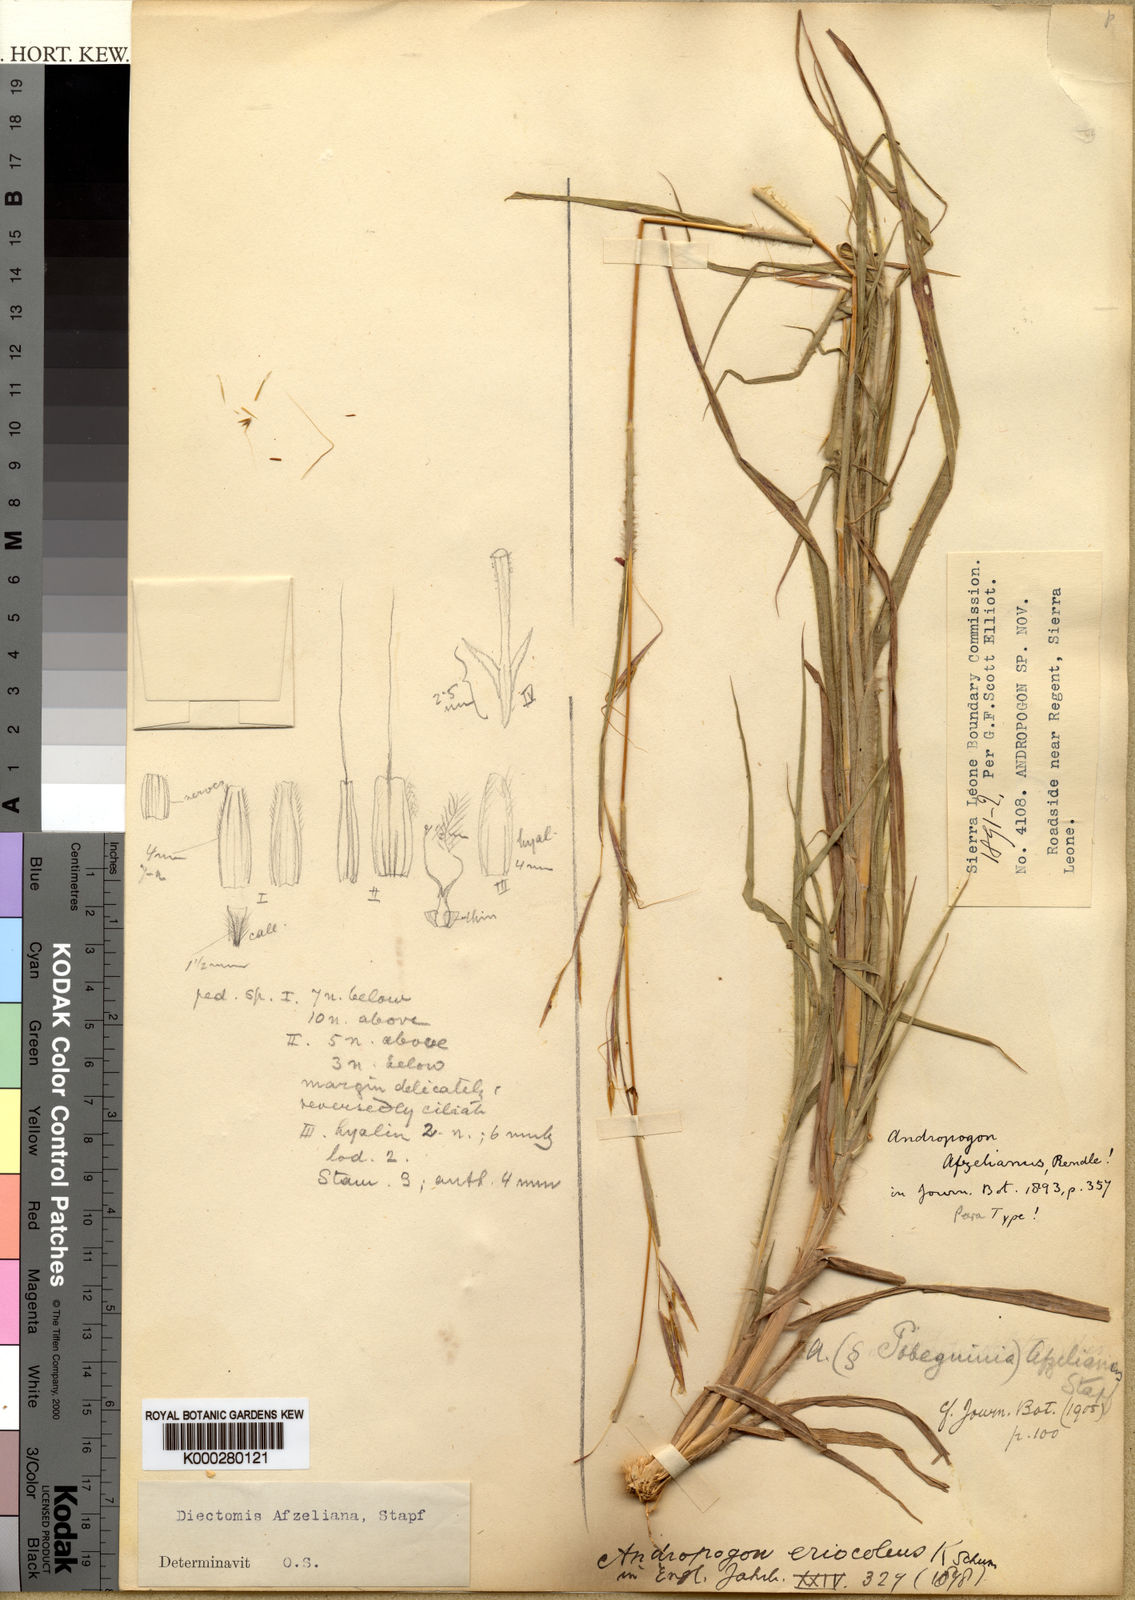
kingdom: Plantae
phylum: Tracheophyta
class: Liliopsida
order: Poales
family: Poaceae
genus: Anadelphia
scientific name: Anadelphia afzeliana
